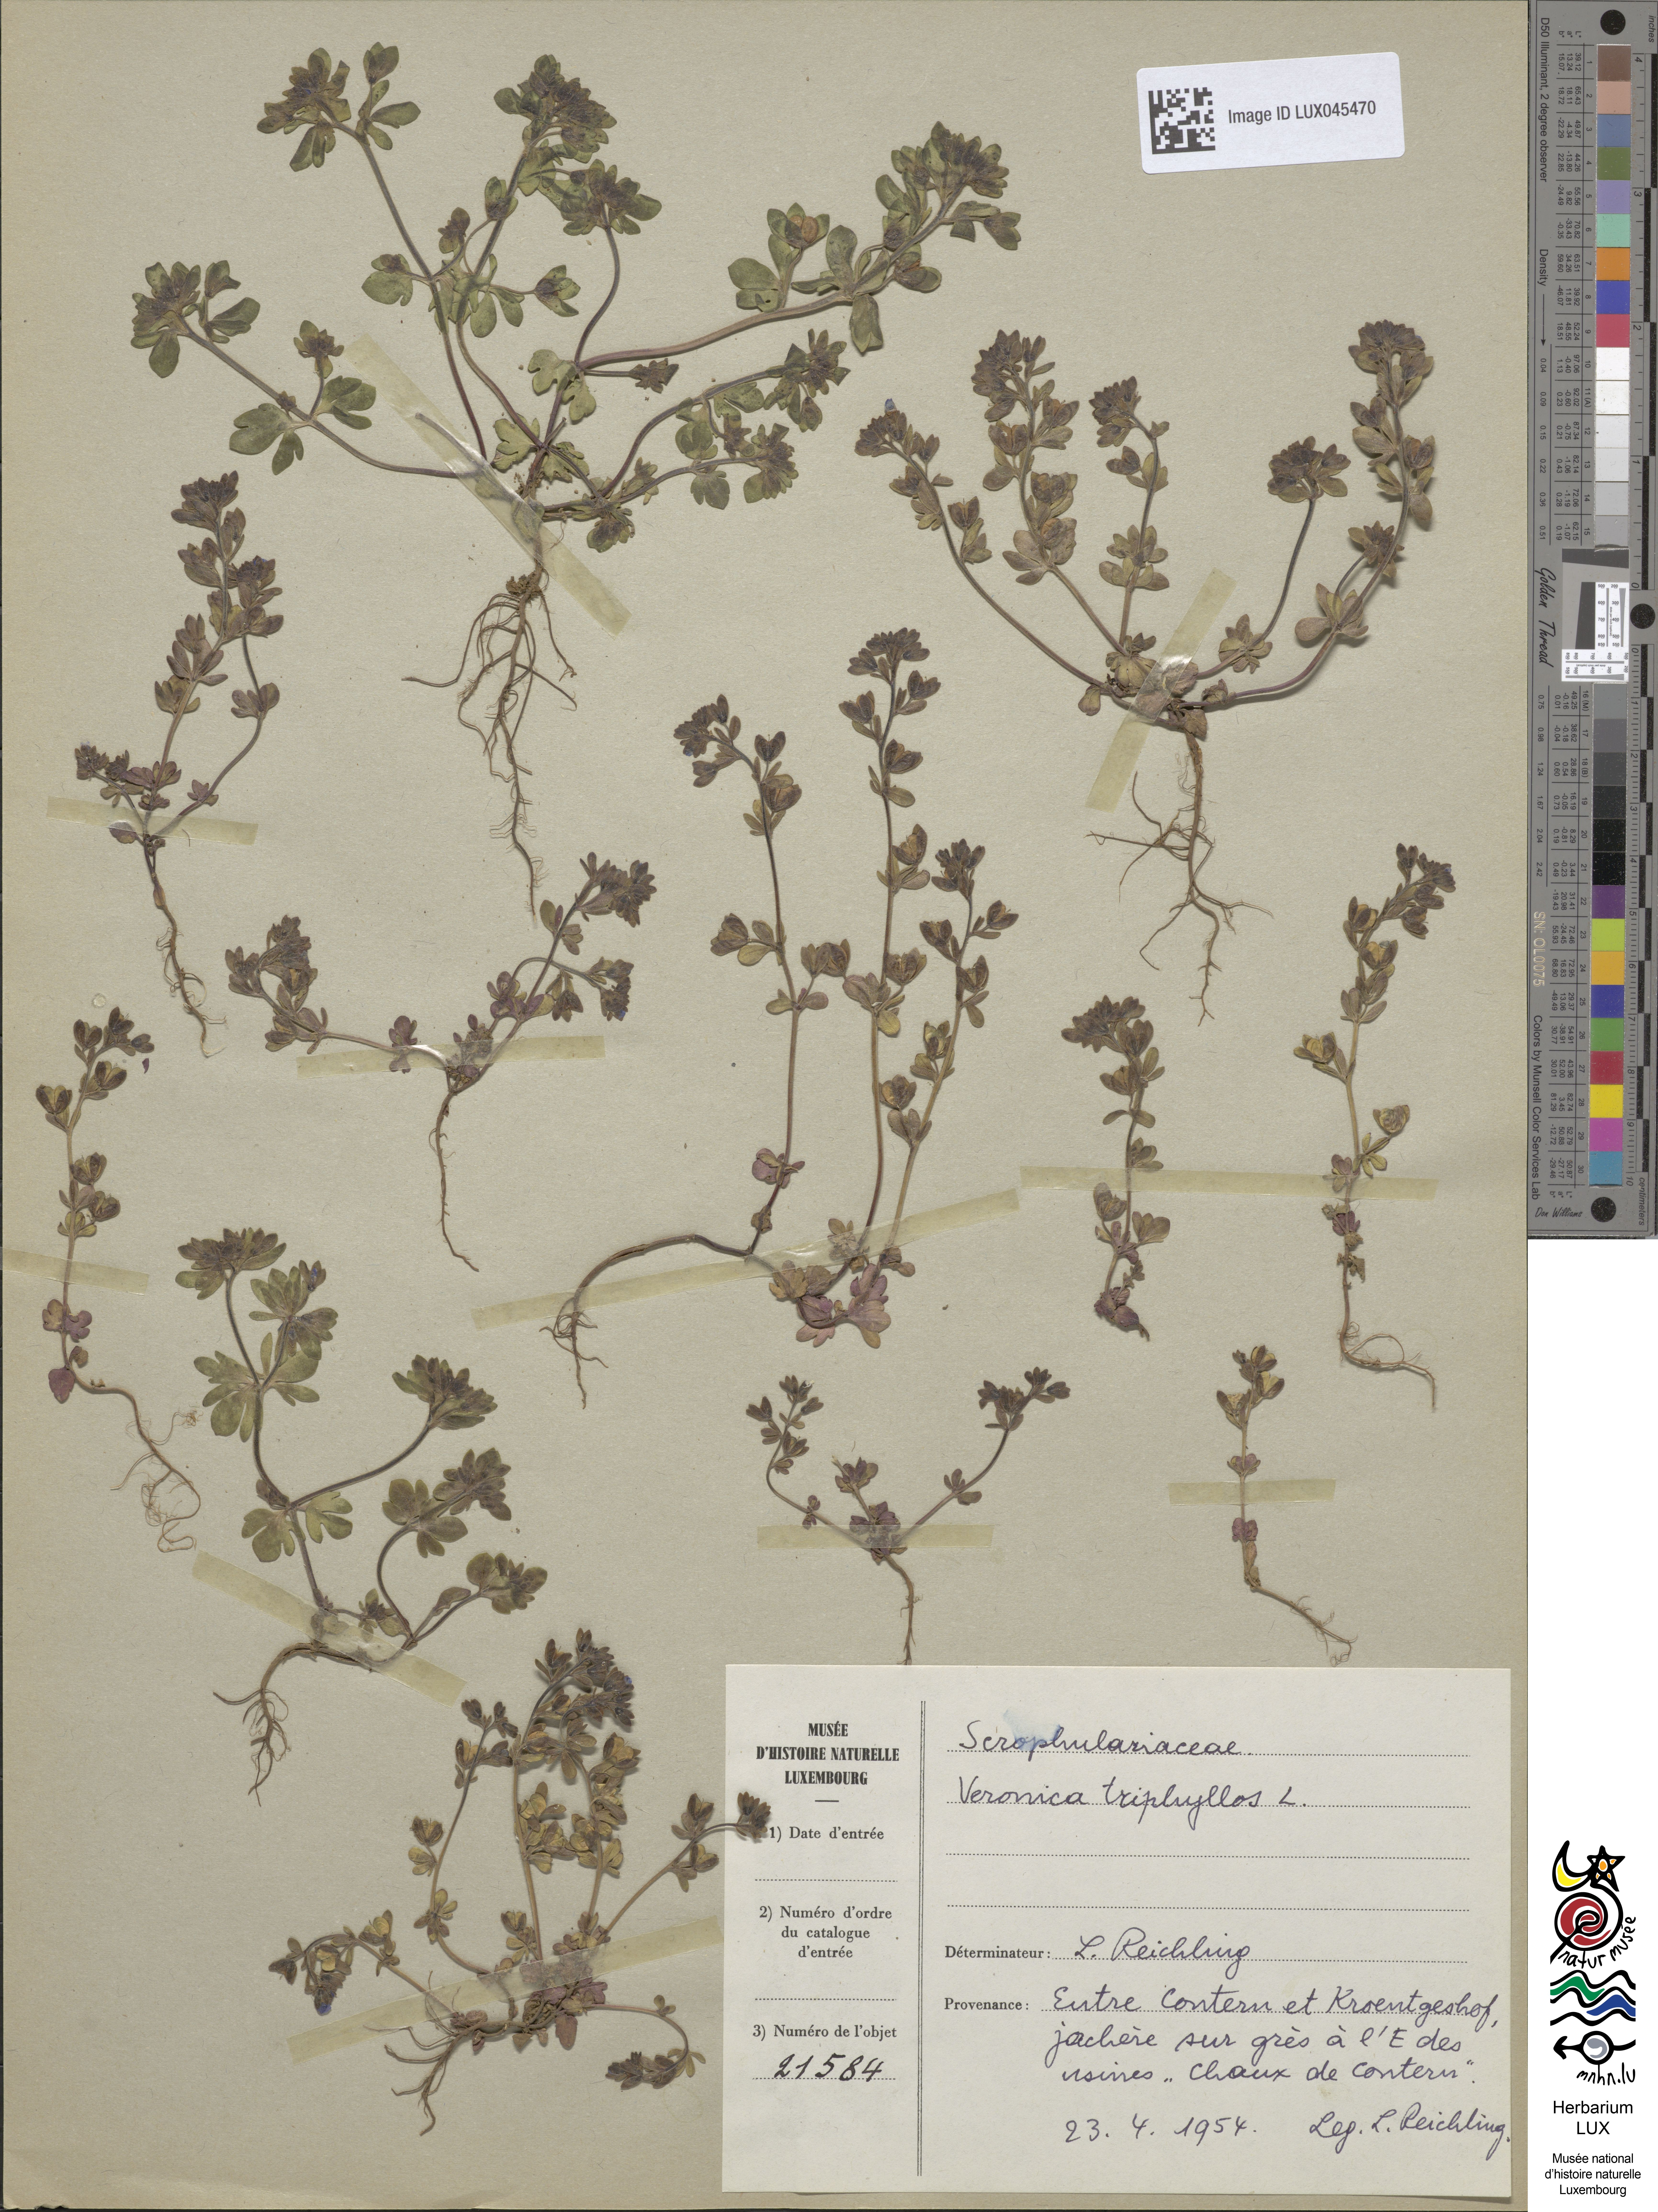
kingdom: Plantae
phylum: Tracheophyta
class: Magnoliopsida
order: Lamiales
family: Plantaginaceae
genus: Veronica
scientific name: Veronica triphyllos
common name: Fingered speedwell
